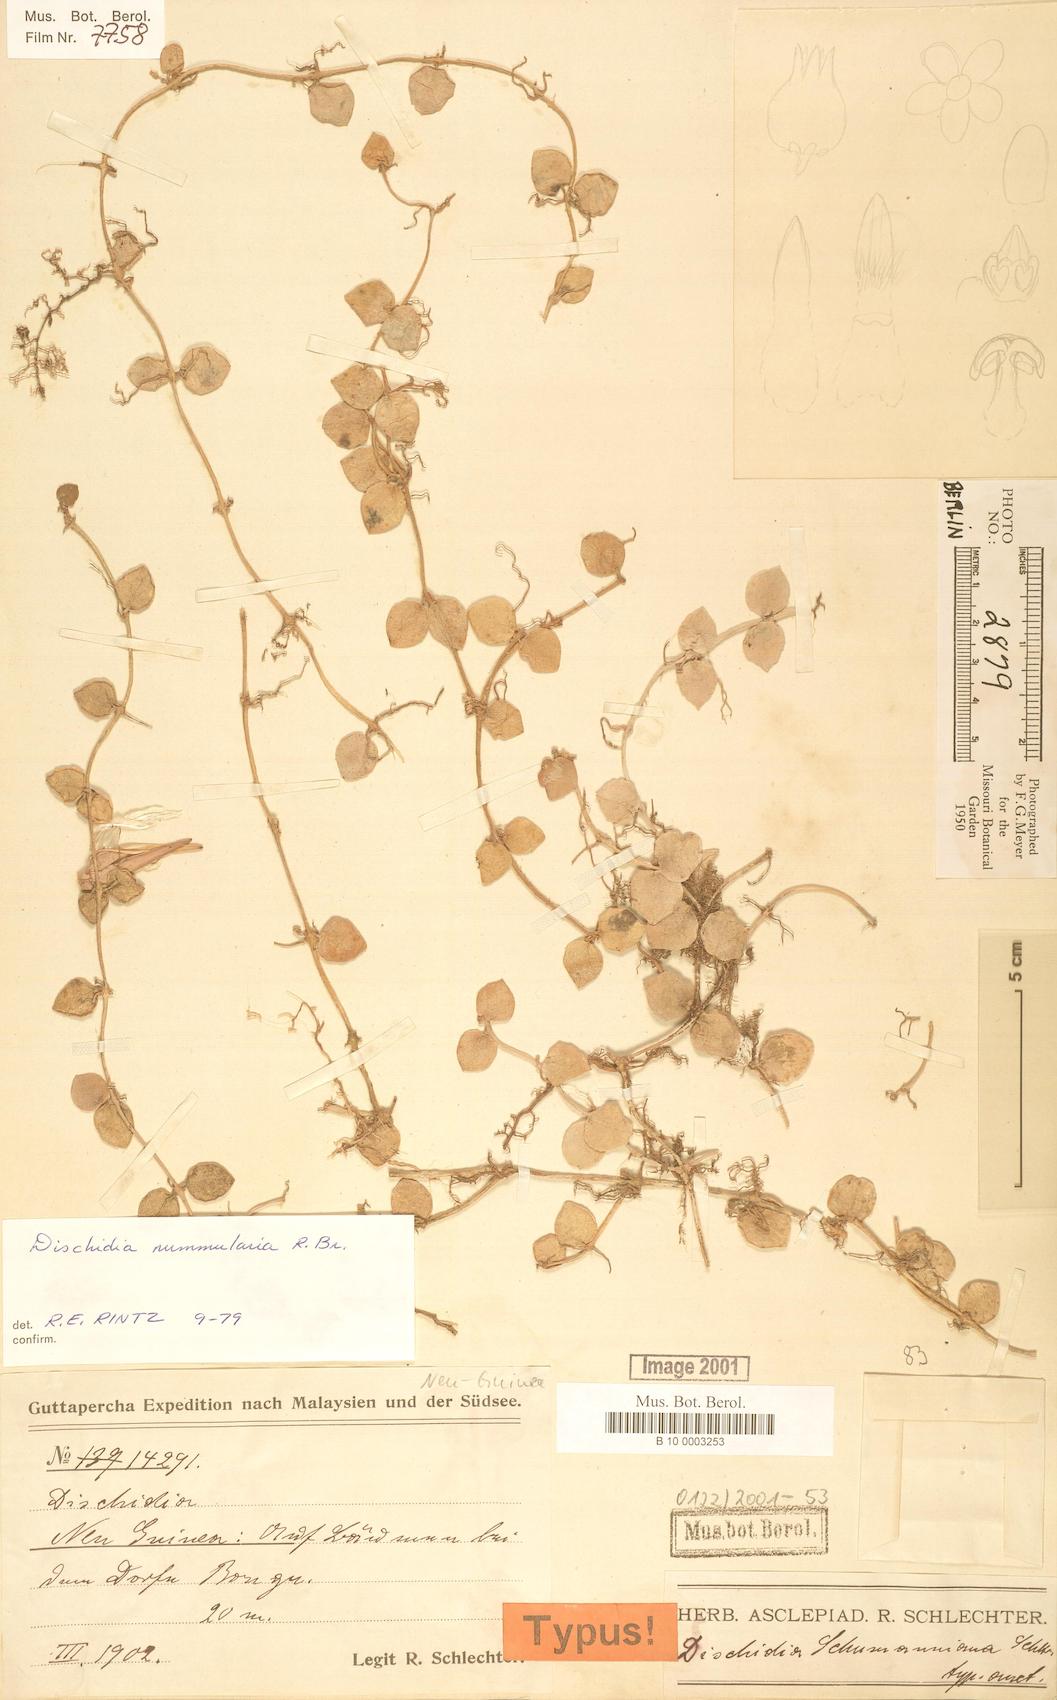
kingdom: Plantae
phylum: Tracheophyta
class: Magnoliopsida
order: Gentianales
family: Apocynaceae
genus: Dischidia
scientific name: Dischidia nummularia
